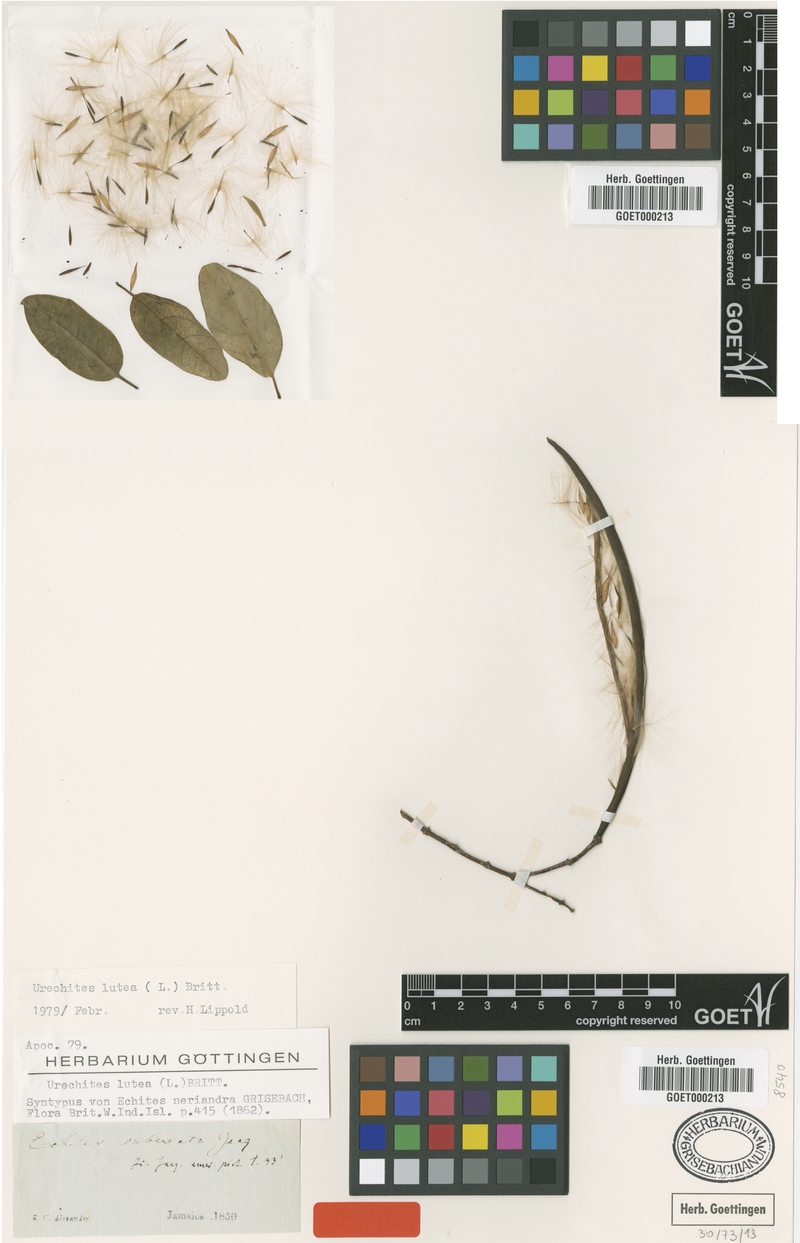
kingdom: Plantae
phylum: Tracheophyta
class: Magnoliopsida
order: Gentianales
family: Apocynaceae
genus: Pentalinon
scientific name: Pentalinon luteum
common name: Licebush
